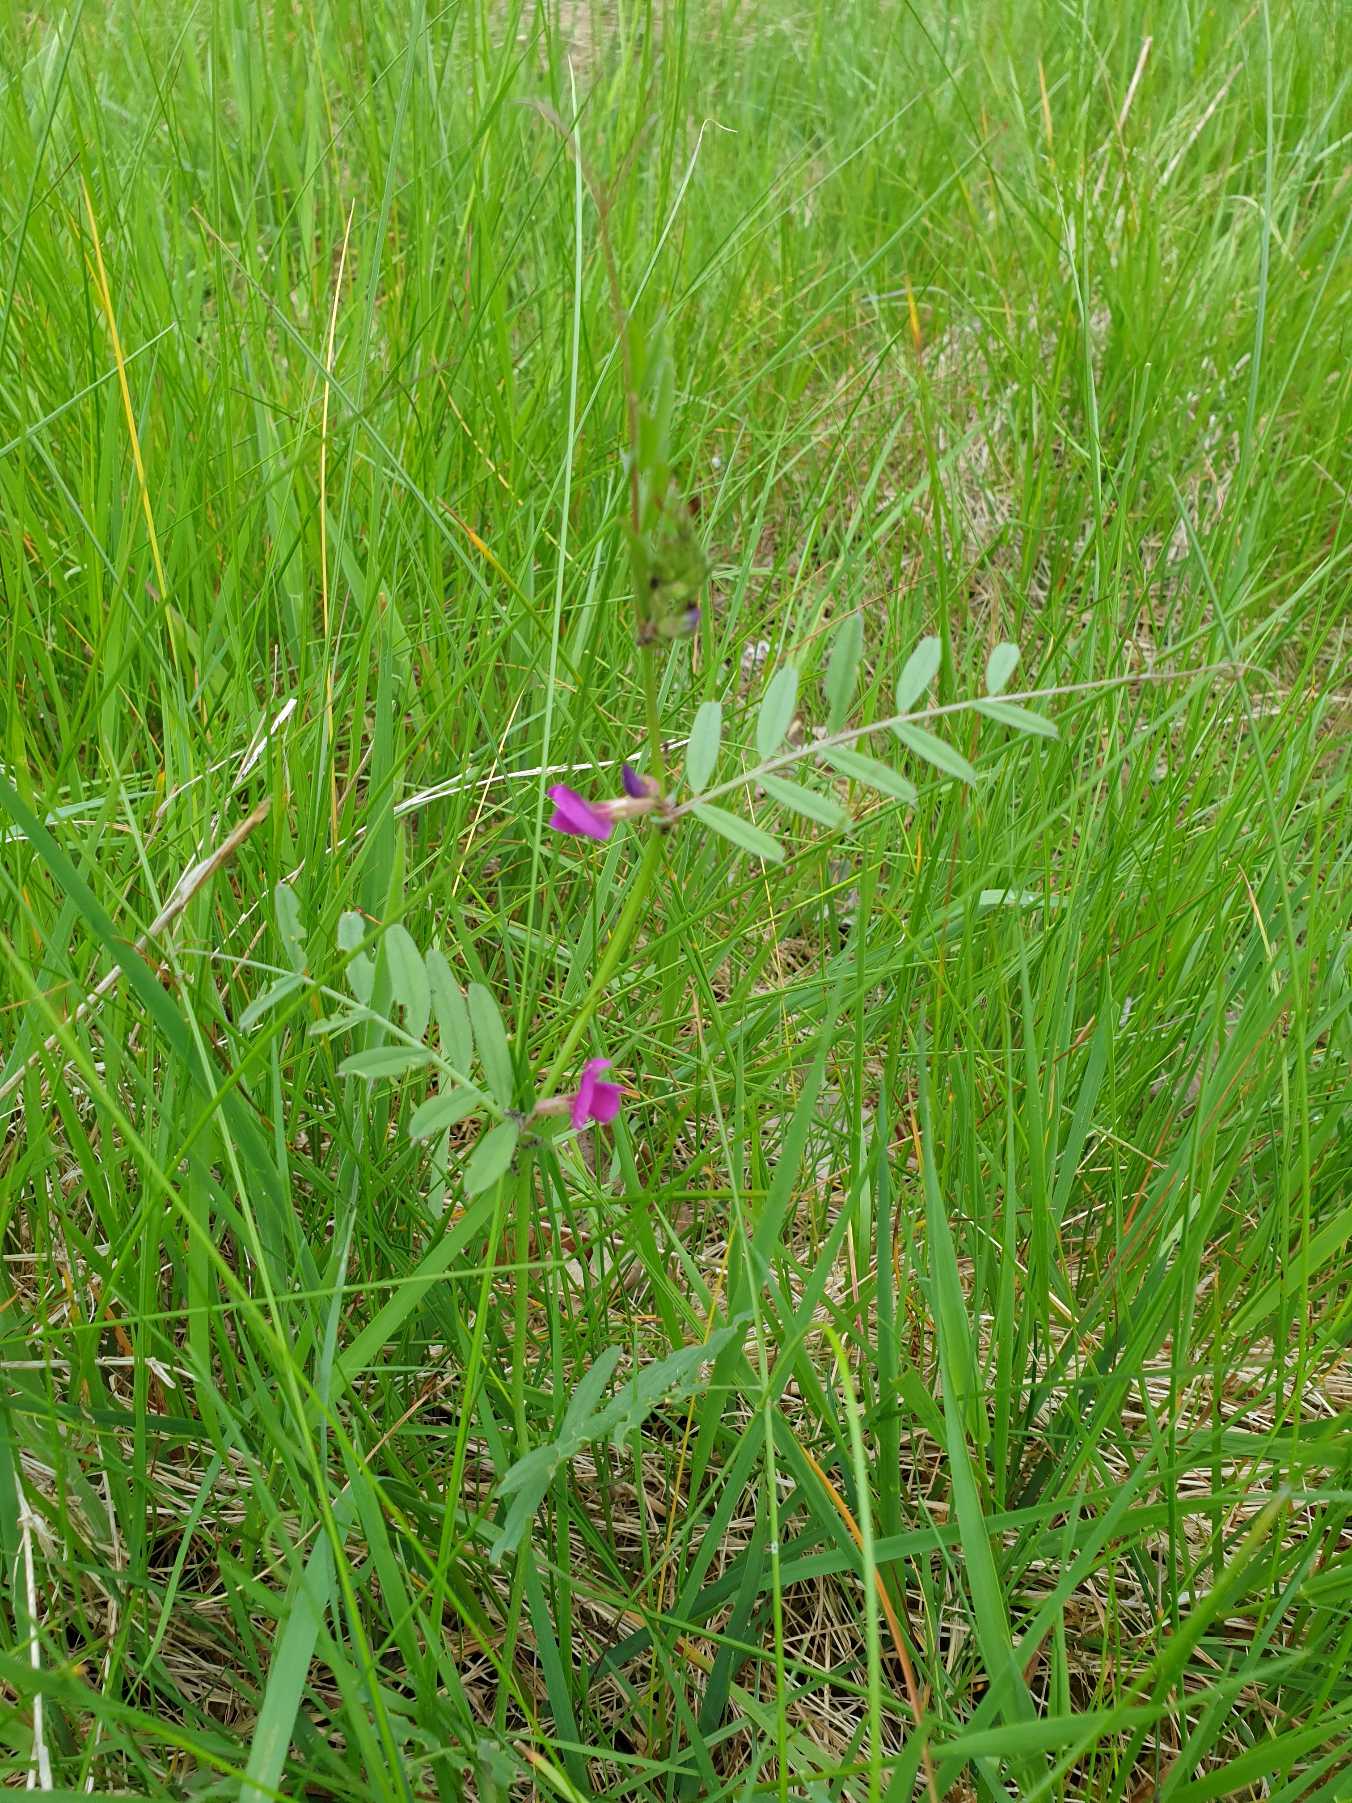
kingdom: Plantae
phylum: Tracheophyta
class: Magnoliopsida
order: Fabales
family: Fabaceae
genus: Vicia
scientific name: Vicia sativa
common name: Foder-vikke
